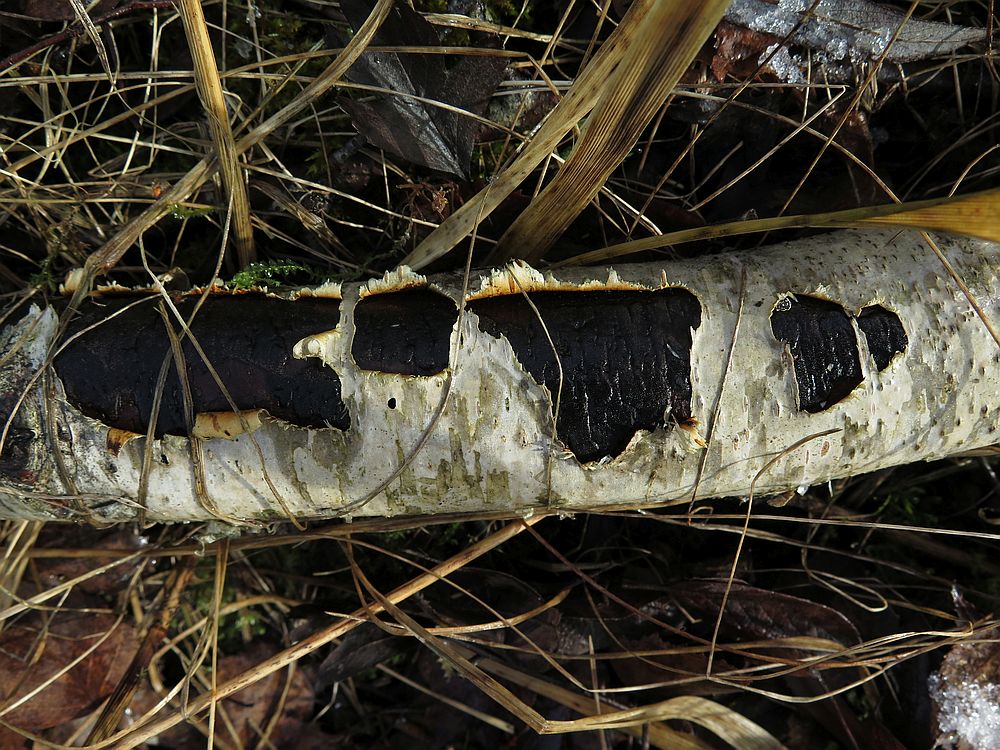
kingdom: Fungi
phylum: Ascomycota
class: Sordariomycetes
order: Xylariales
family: Diatrypaceae
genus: Diatrype
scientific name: Diatrype stigma
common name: udbredt kulskorpe
